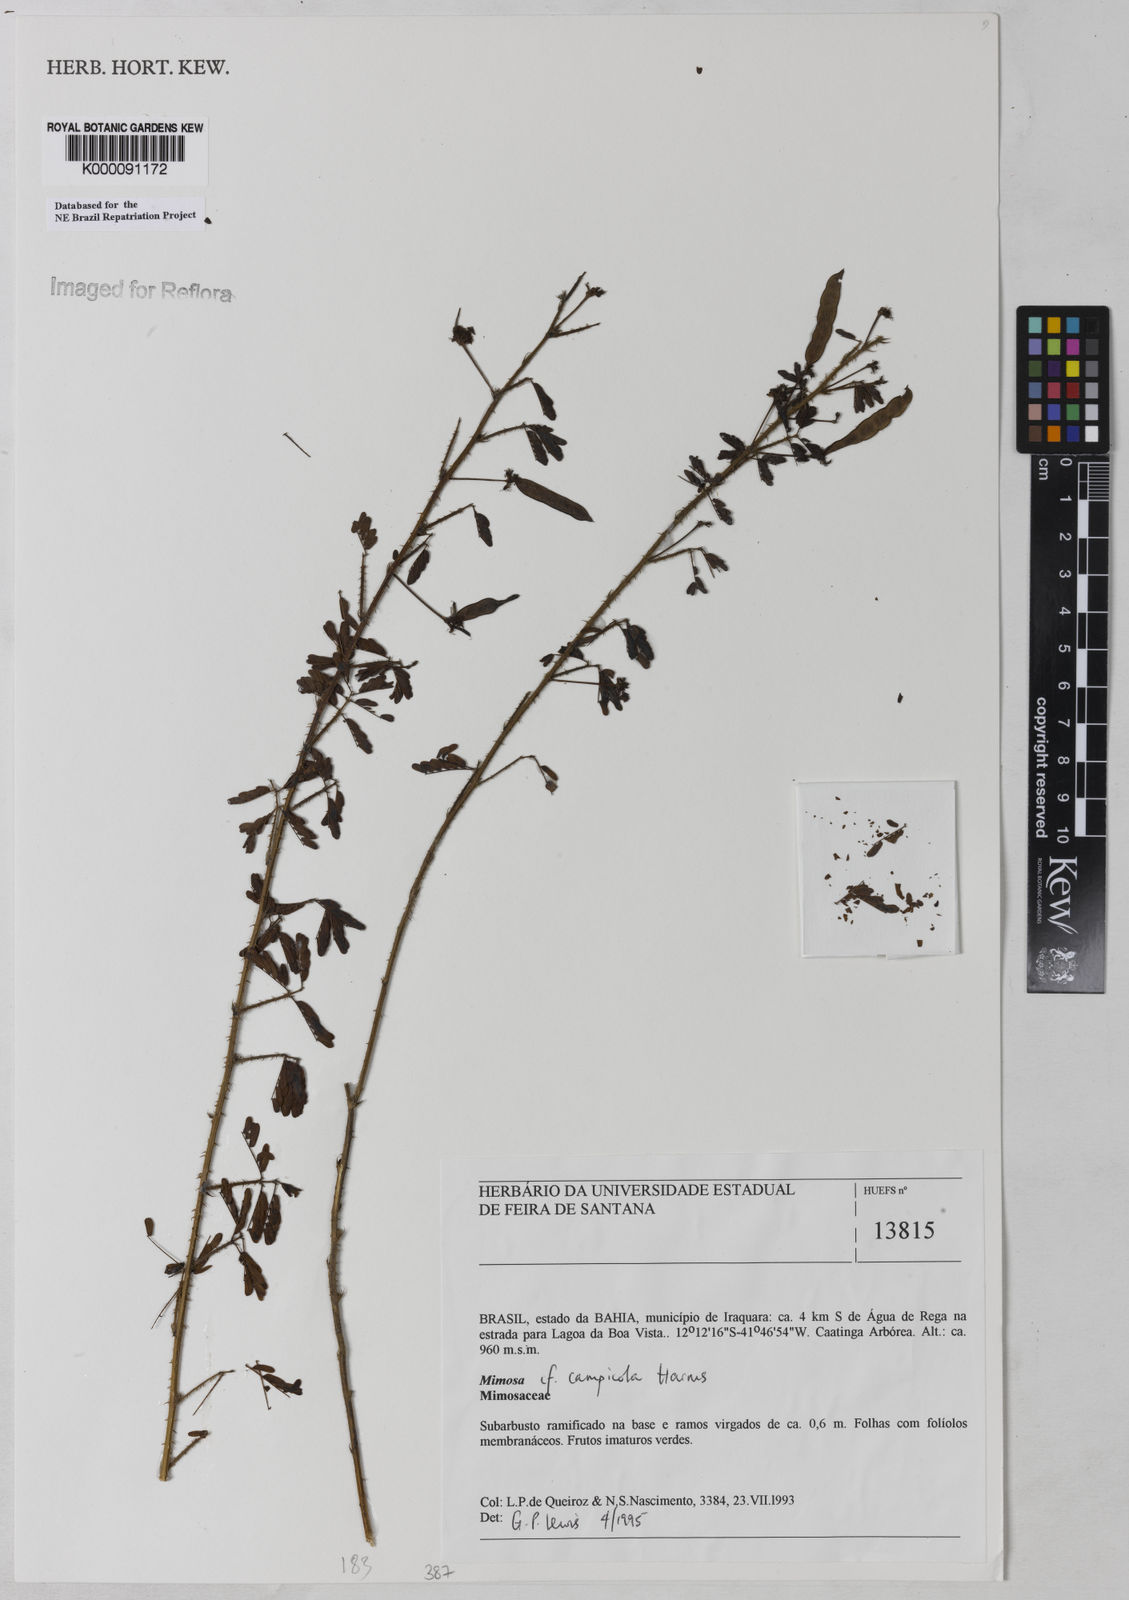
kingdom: Plantae
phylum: Tracheophyta
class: Magnoliopsida
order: Fabales
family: Fabaceae
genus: Mimosa
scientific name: Mimosa campicola
